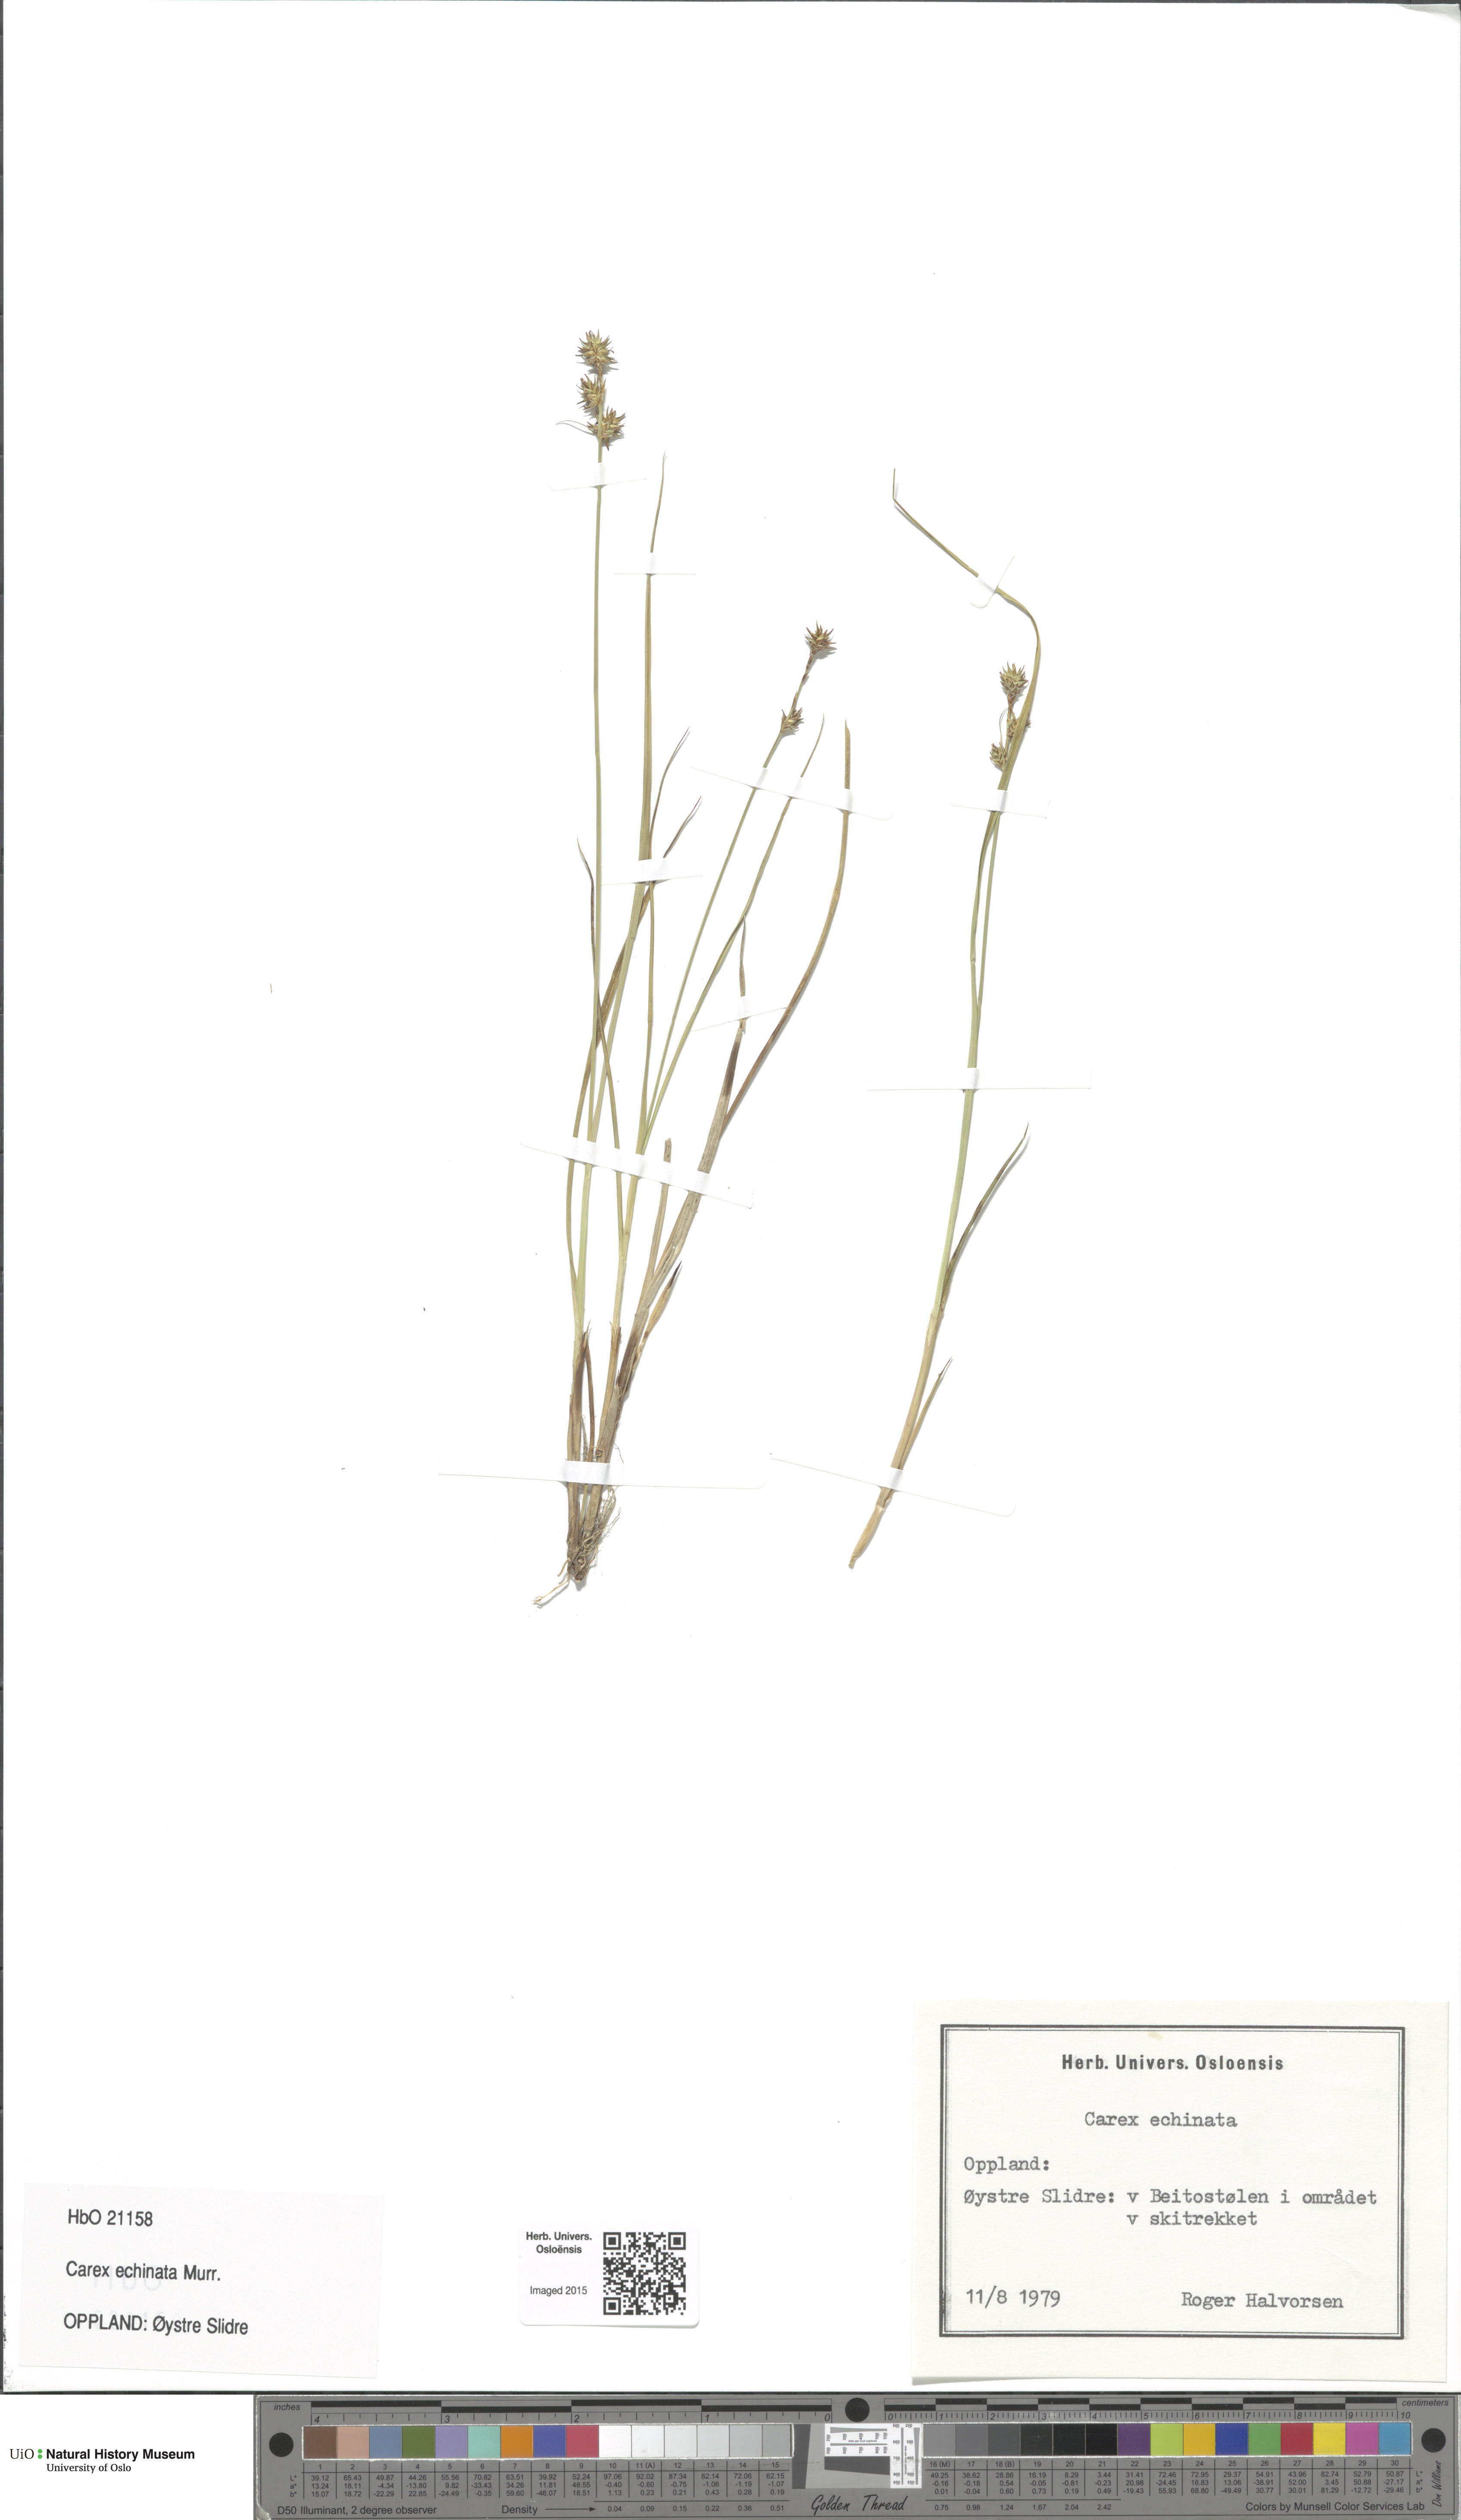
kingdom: Plantae
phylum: Tracheophyta
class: Liliopsida
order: Poales
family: Cyperaceae
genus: Carex
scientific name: Carex echinata
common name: Star sedge
